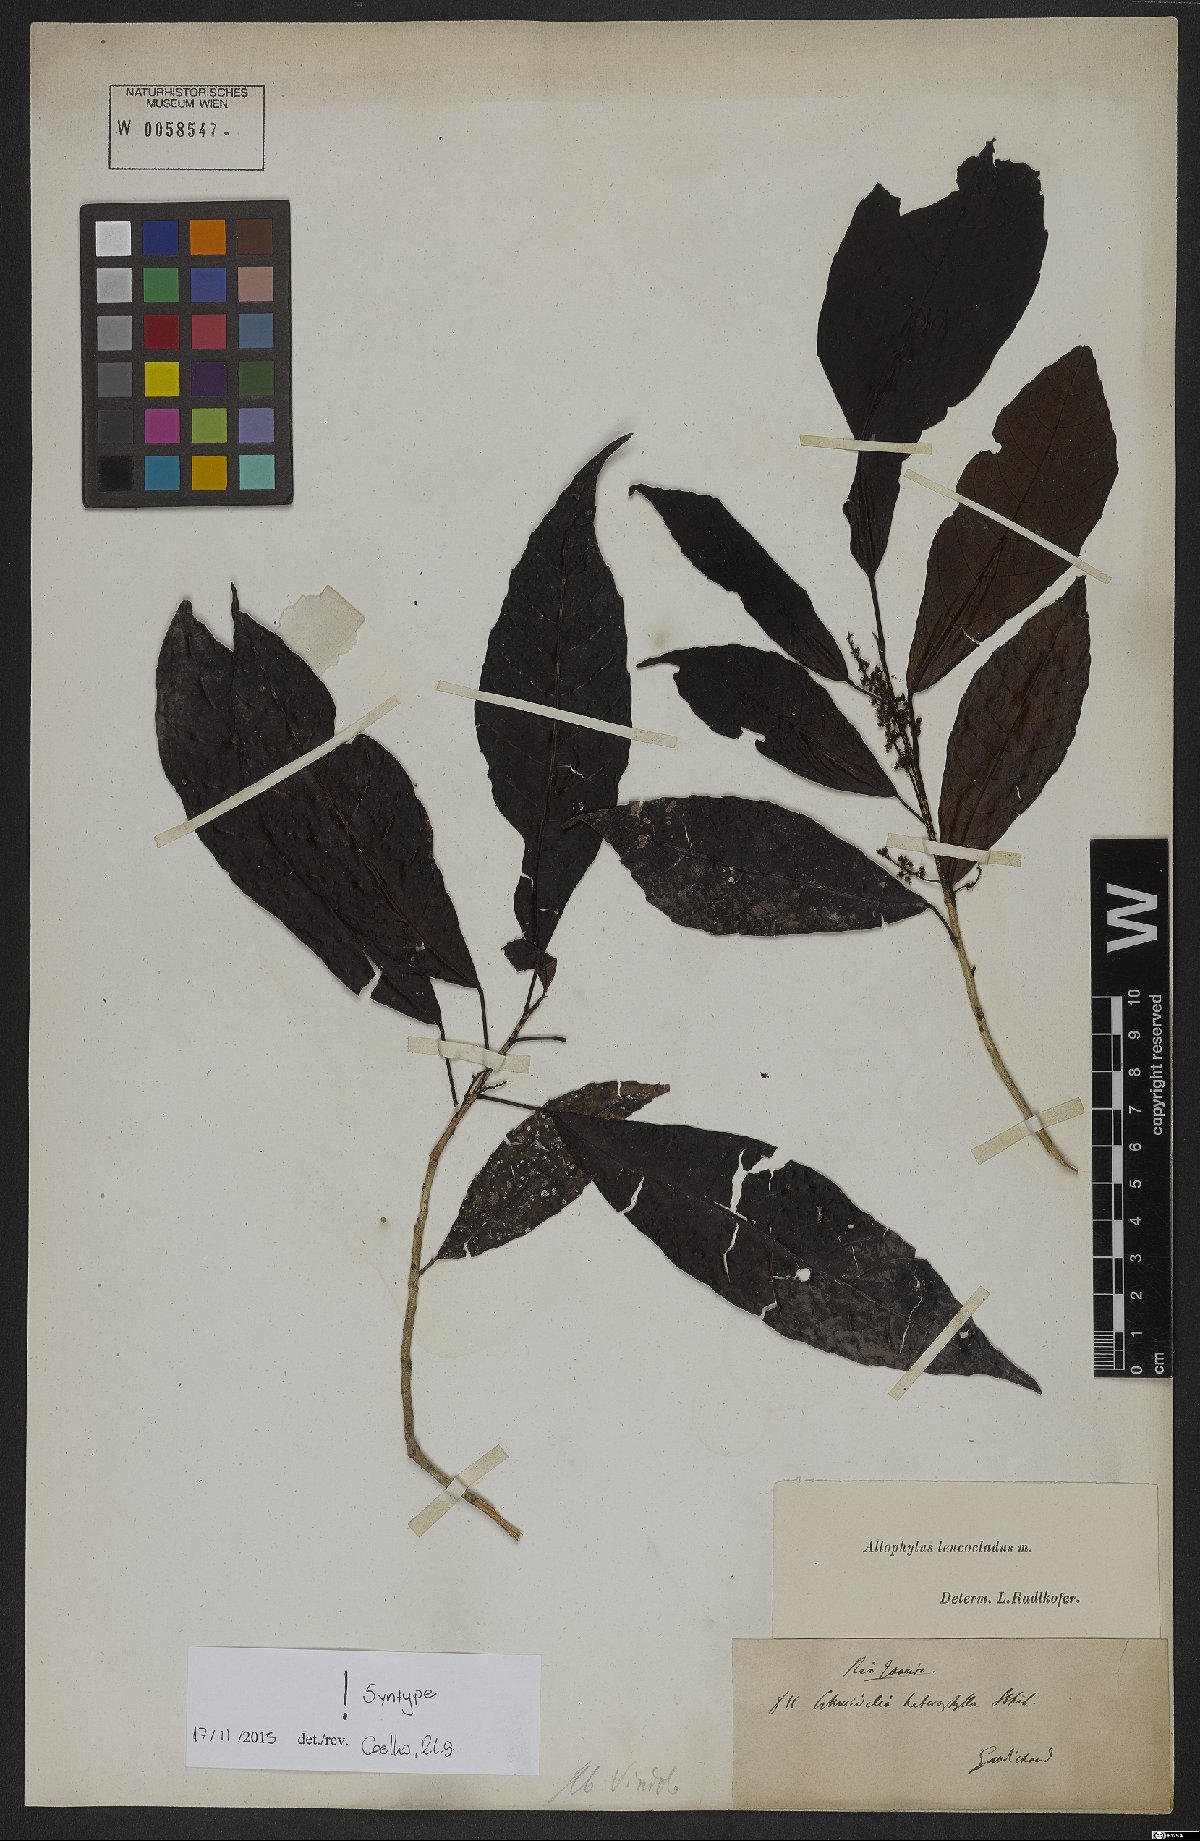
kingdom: Plantae
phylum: Tracheophyta
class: Magnoliopsida
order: Sapindales
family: Sapindaceae
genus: Allophylus
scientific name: Allophylus leucoclados
